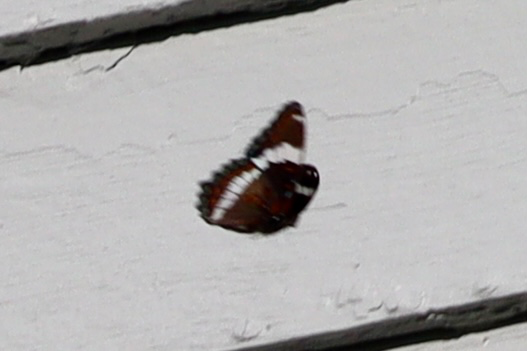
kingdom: Animalia
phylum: Arthropoda
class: Insecta
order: Lepidoptera
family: Nymphalidae
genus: Limenitis
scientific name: Limenitis arthemis
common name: Red-spotted Admiral
